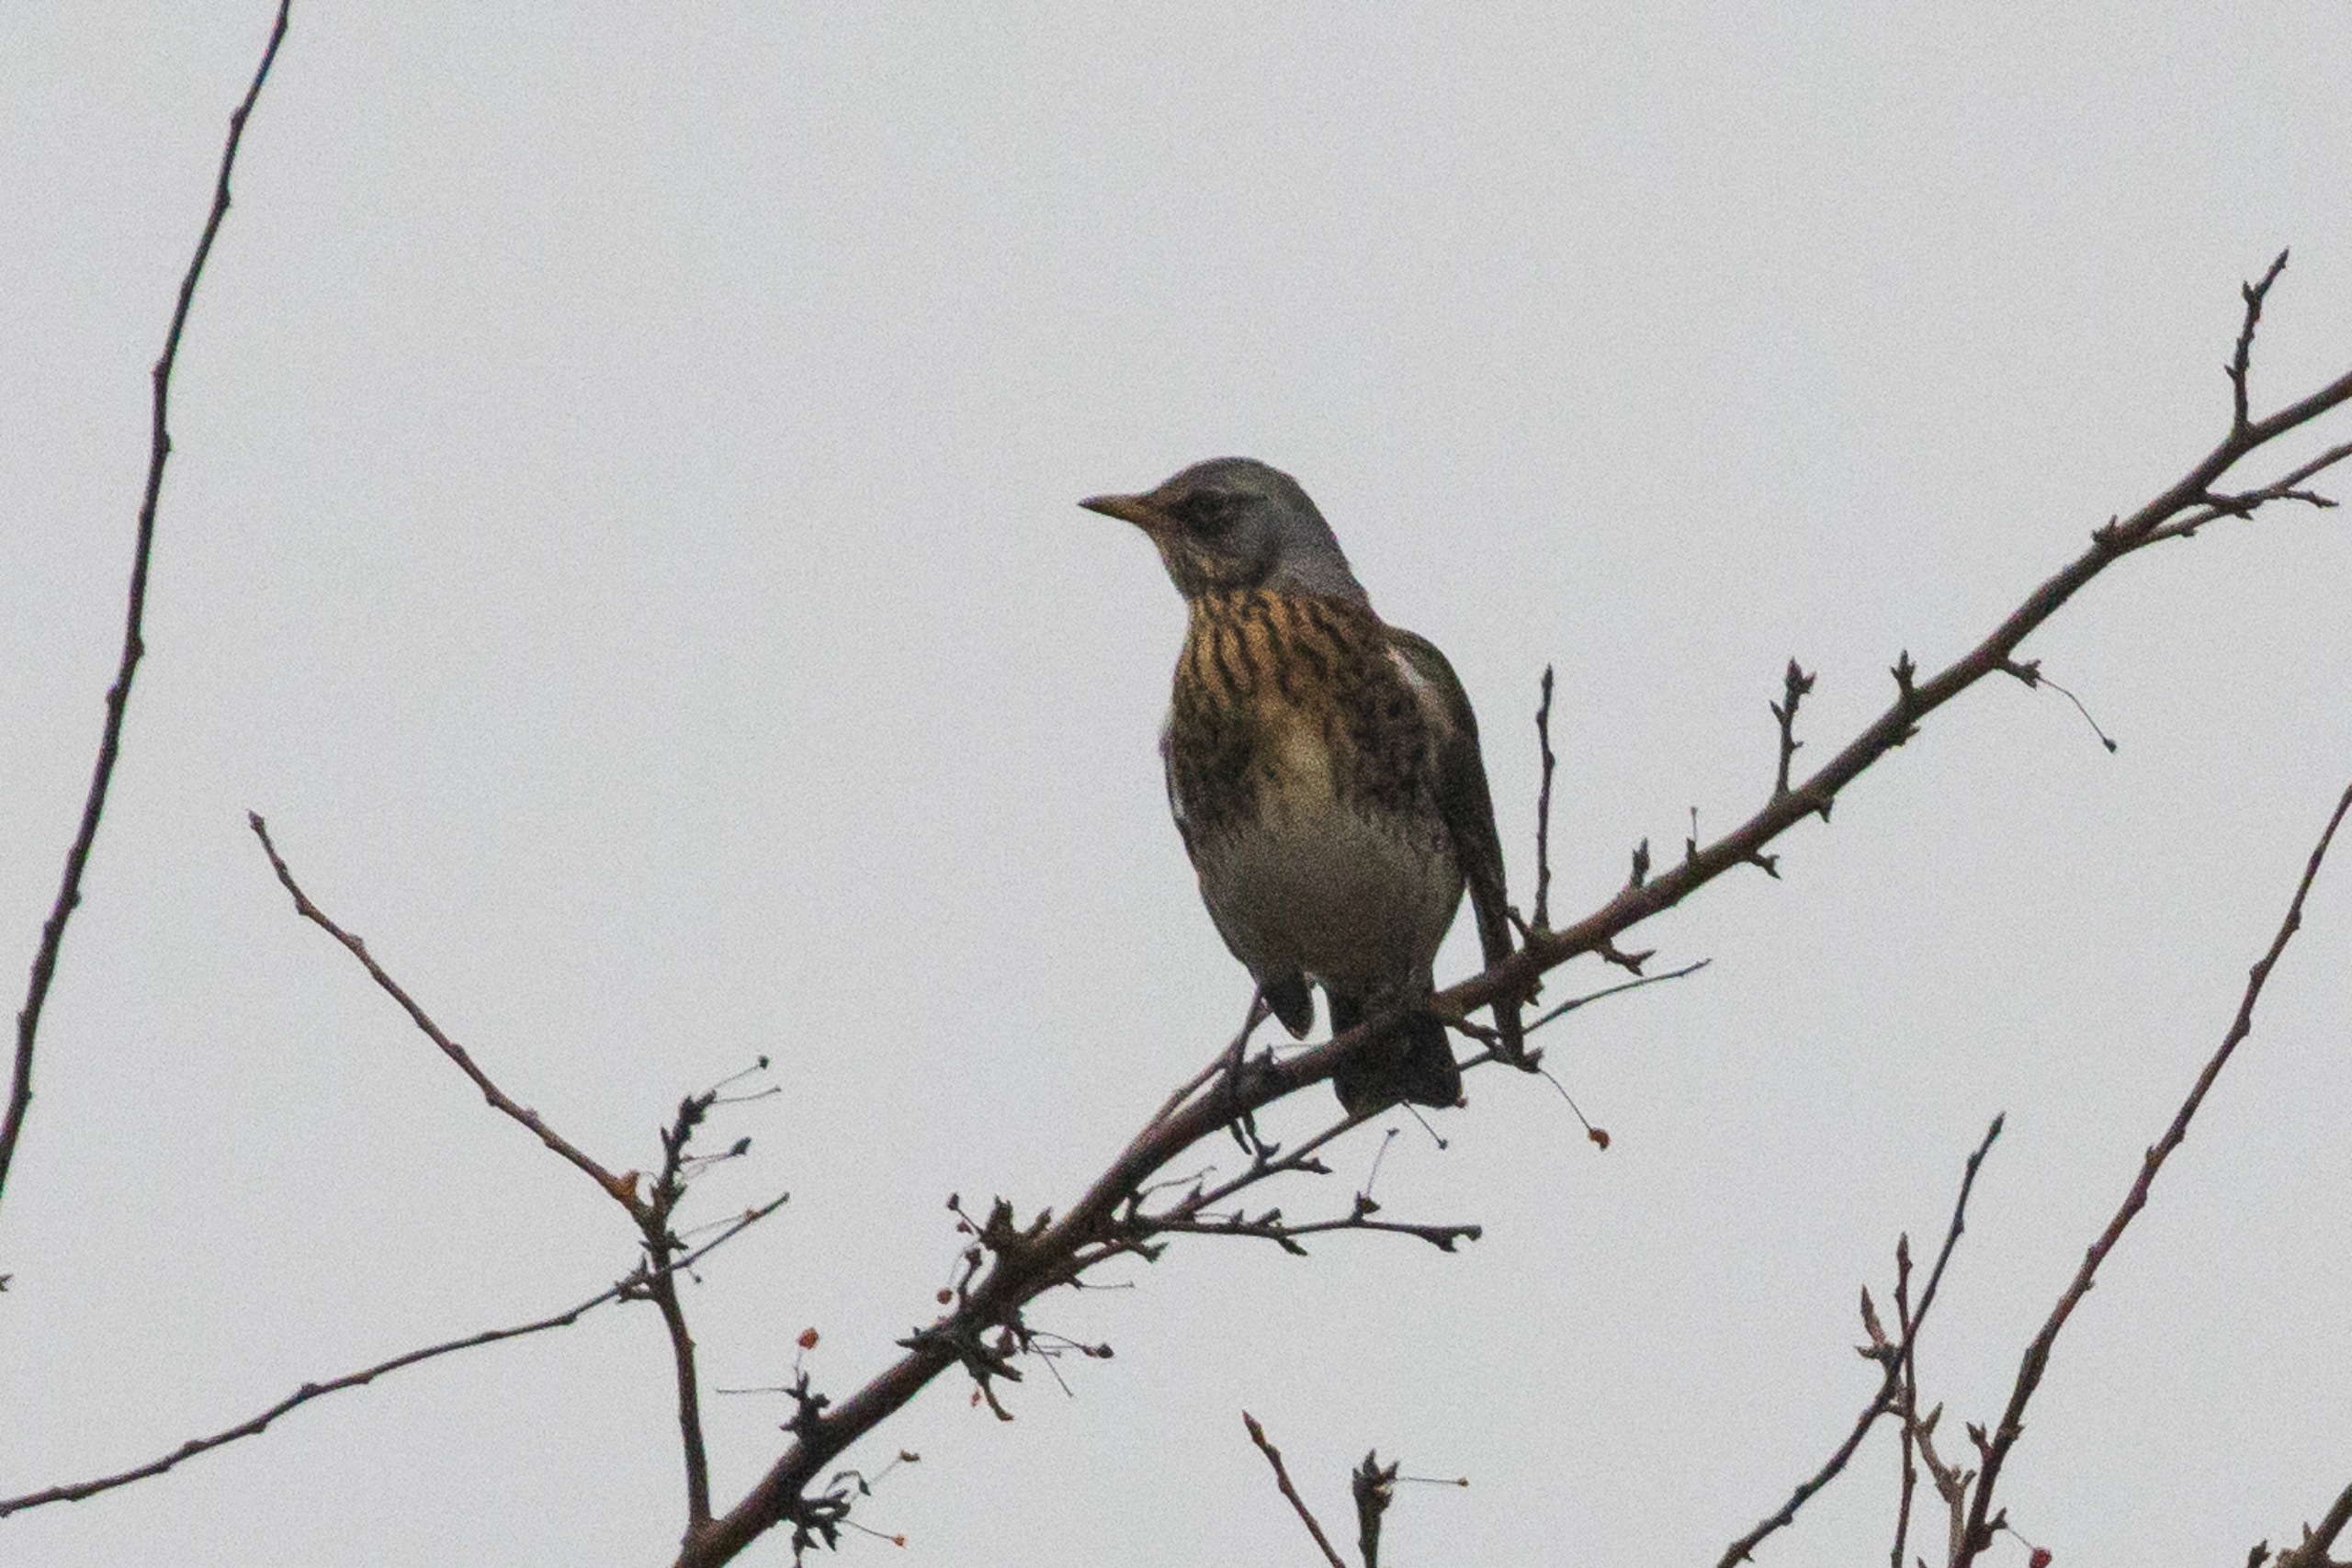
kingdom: Animalia
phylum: Chordata
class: Aves
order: Passeriformes
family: Turdidae
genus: Turdus
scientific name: Turdus pilaris
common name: Sjagger
